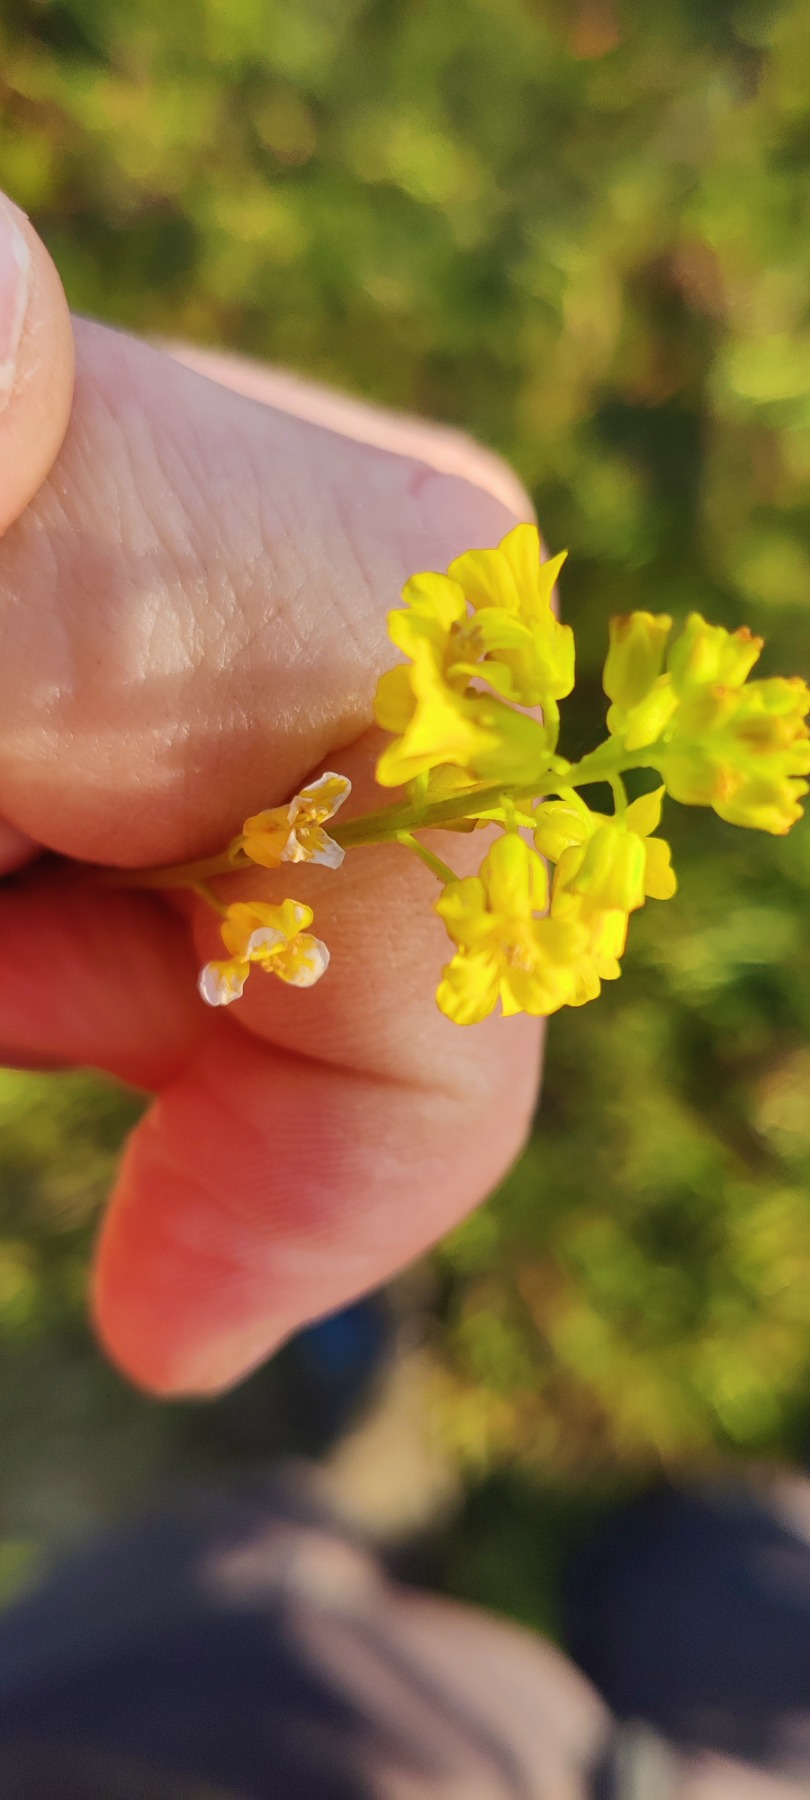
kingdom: Plantae
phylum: Tracheophyta
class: Magnoliopsida
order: Brassicales
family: Brassicaceae
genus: Barbarea
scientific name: Barbarea vulgaris
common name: Almindelig vinterkarse
